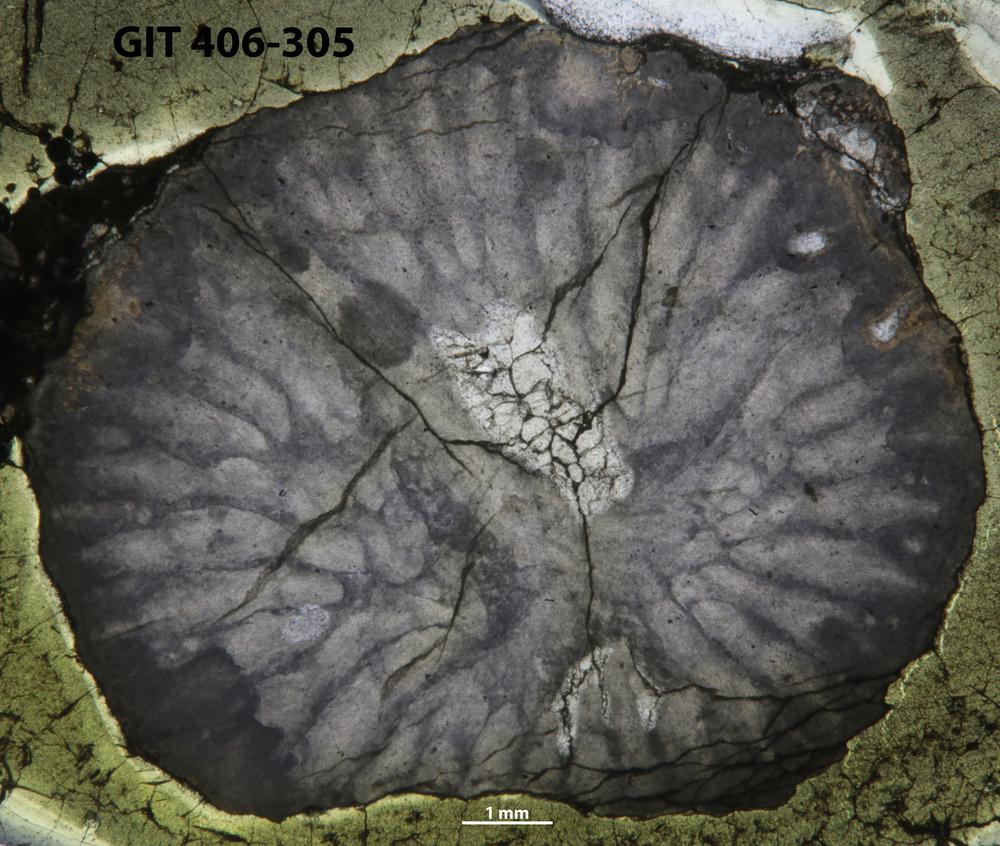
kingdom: Animalia
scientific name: Animalia
